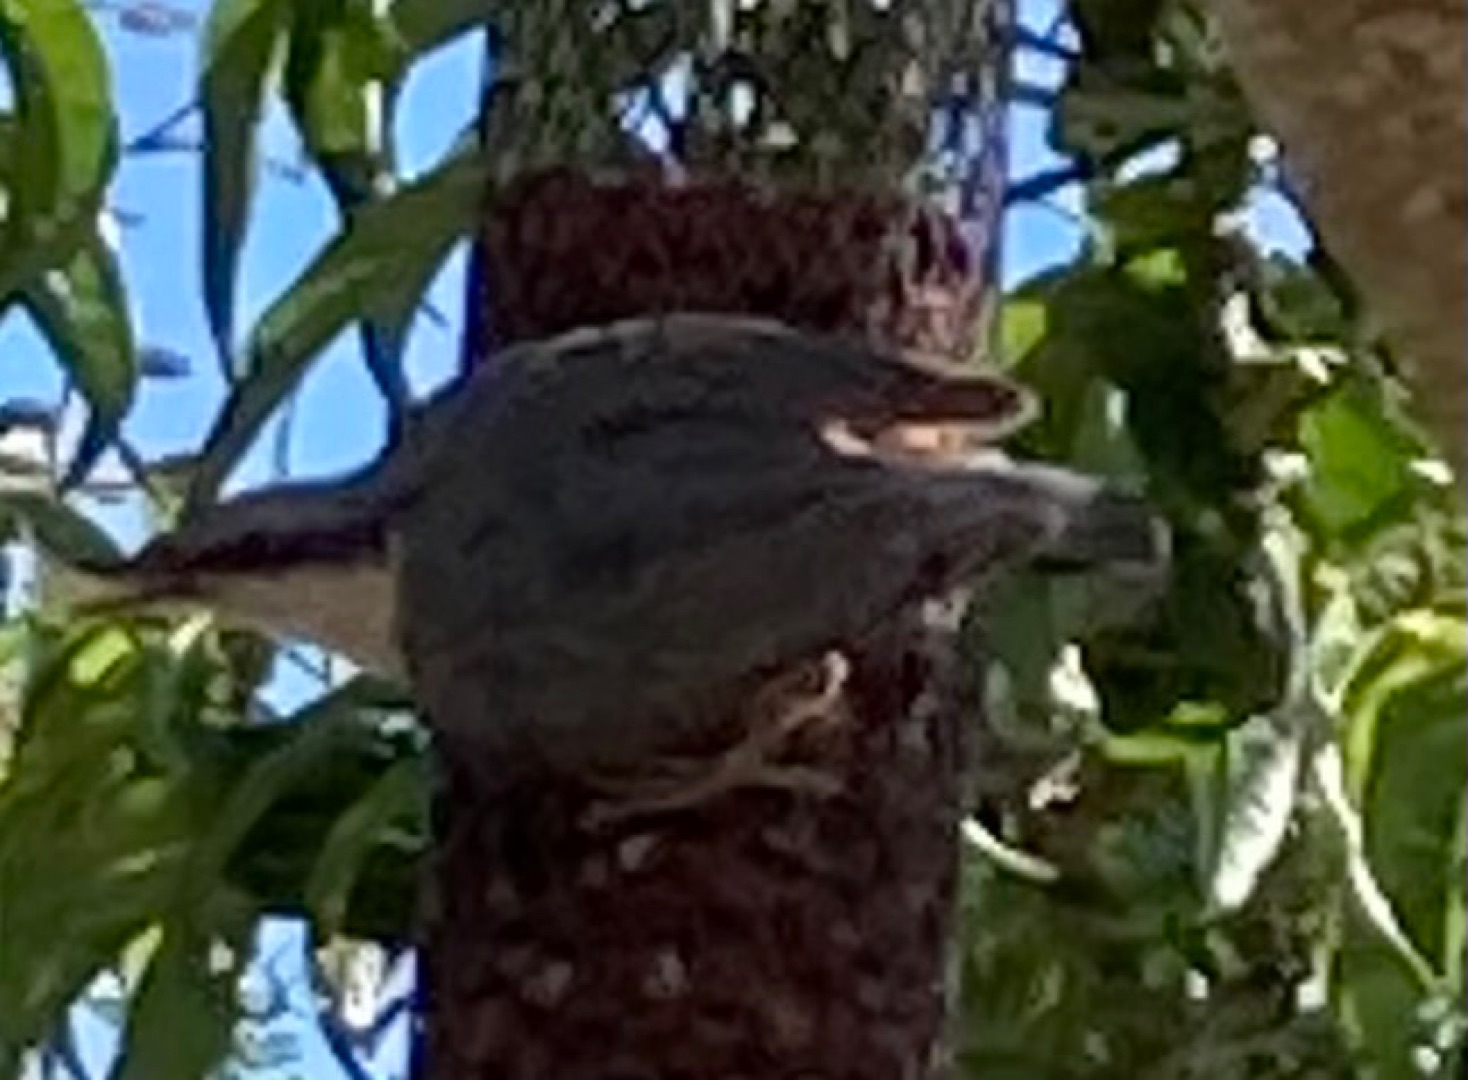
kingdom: Animalia
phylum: Chordata
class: Aves
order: Passeriformes
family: Sittidae
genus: Sitta
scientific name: Sitta europaea
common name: Spætmejse
